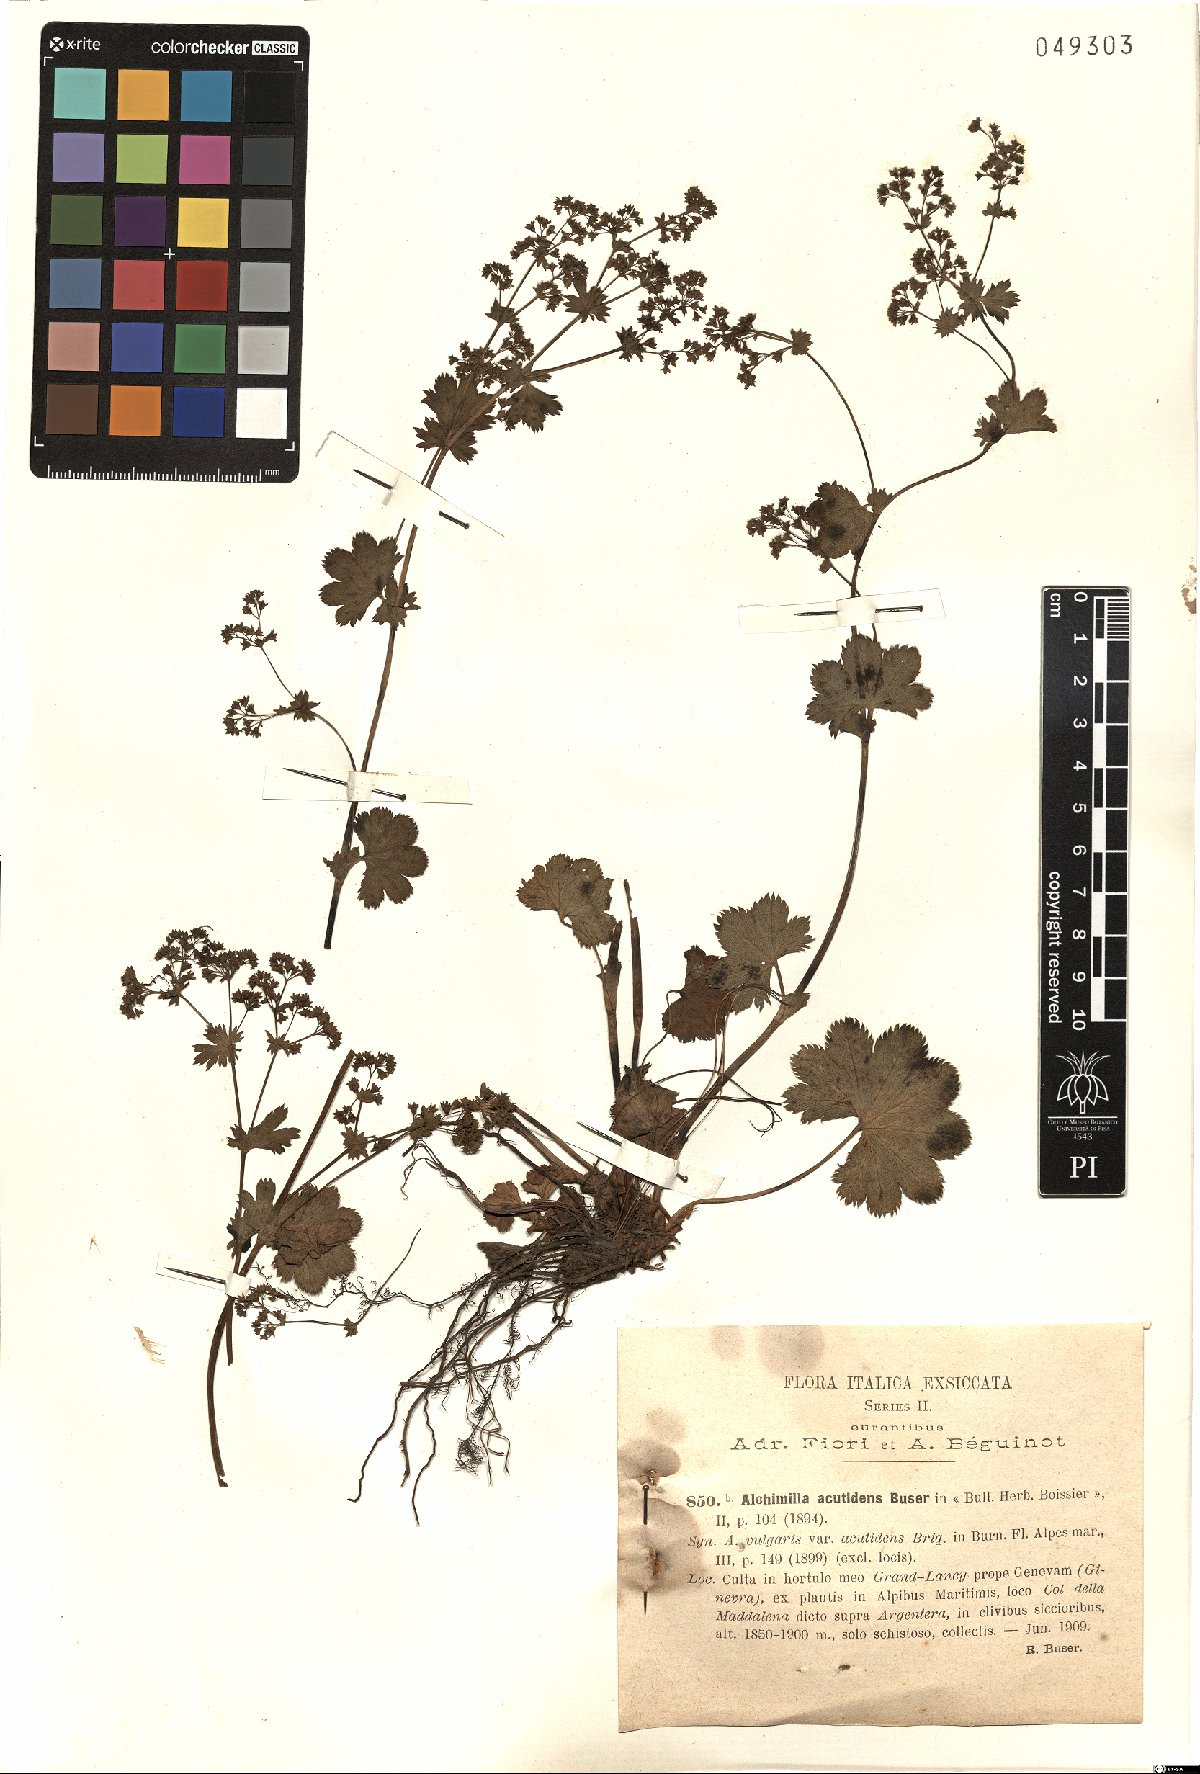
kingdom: Plantae
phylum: Tracheophyta
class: Magnoliopsida
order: Rosales
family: Rosaceae
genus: Alchemilla
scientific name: Alchemilla acutidens
